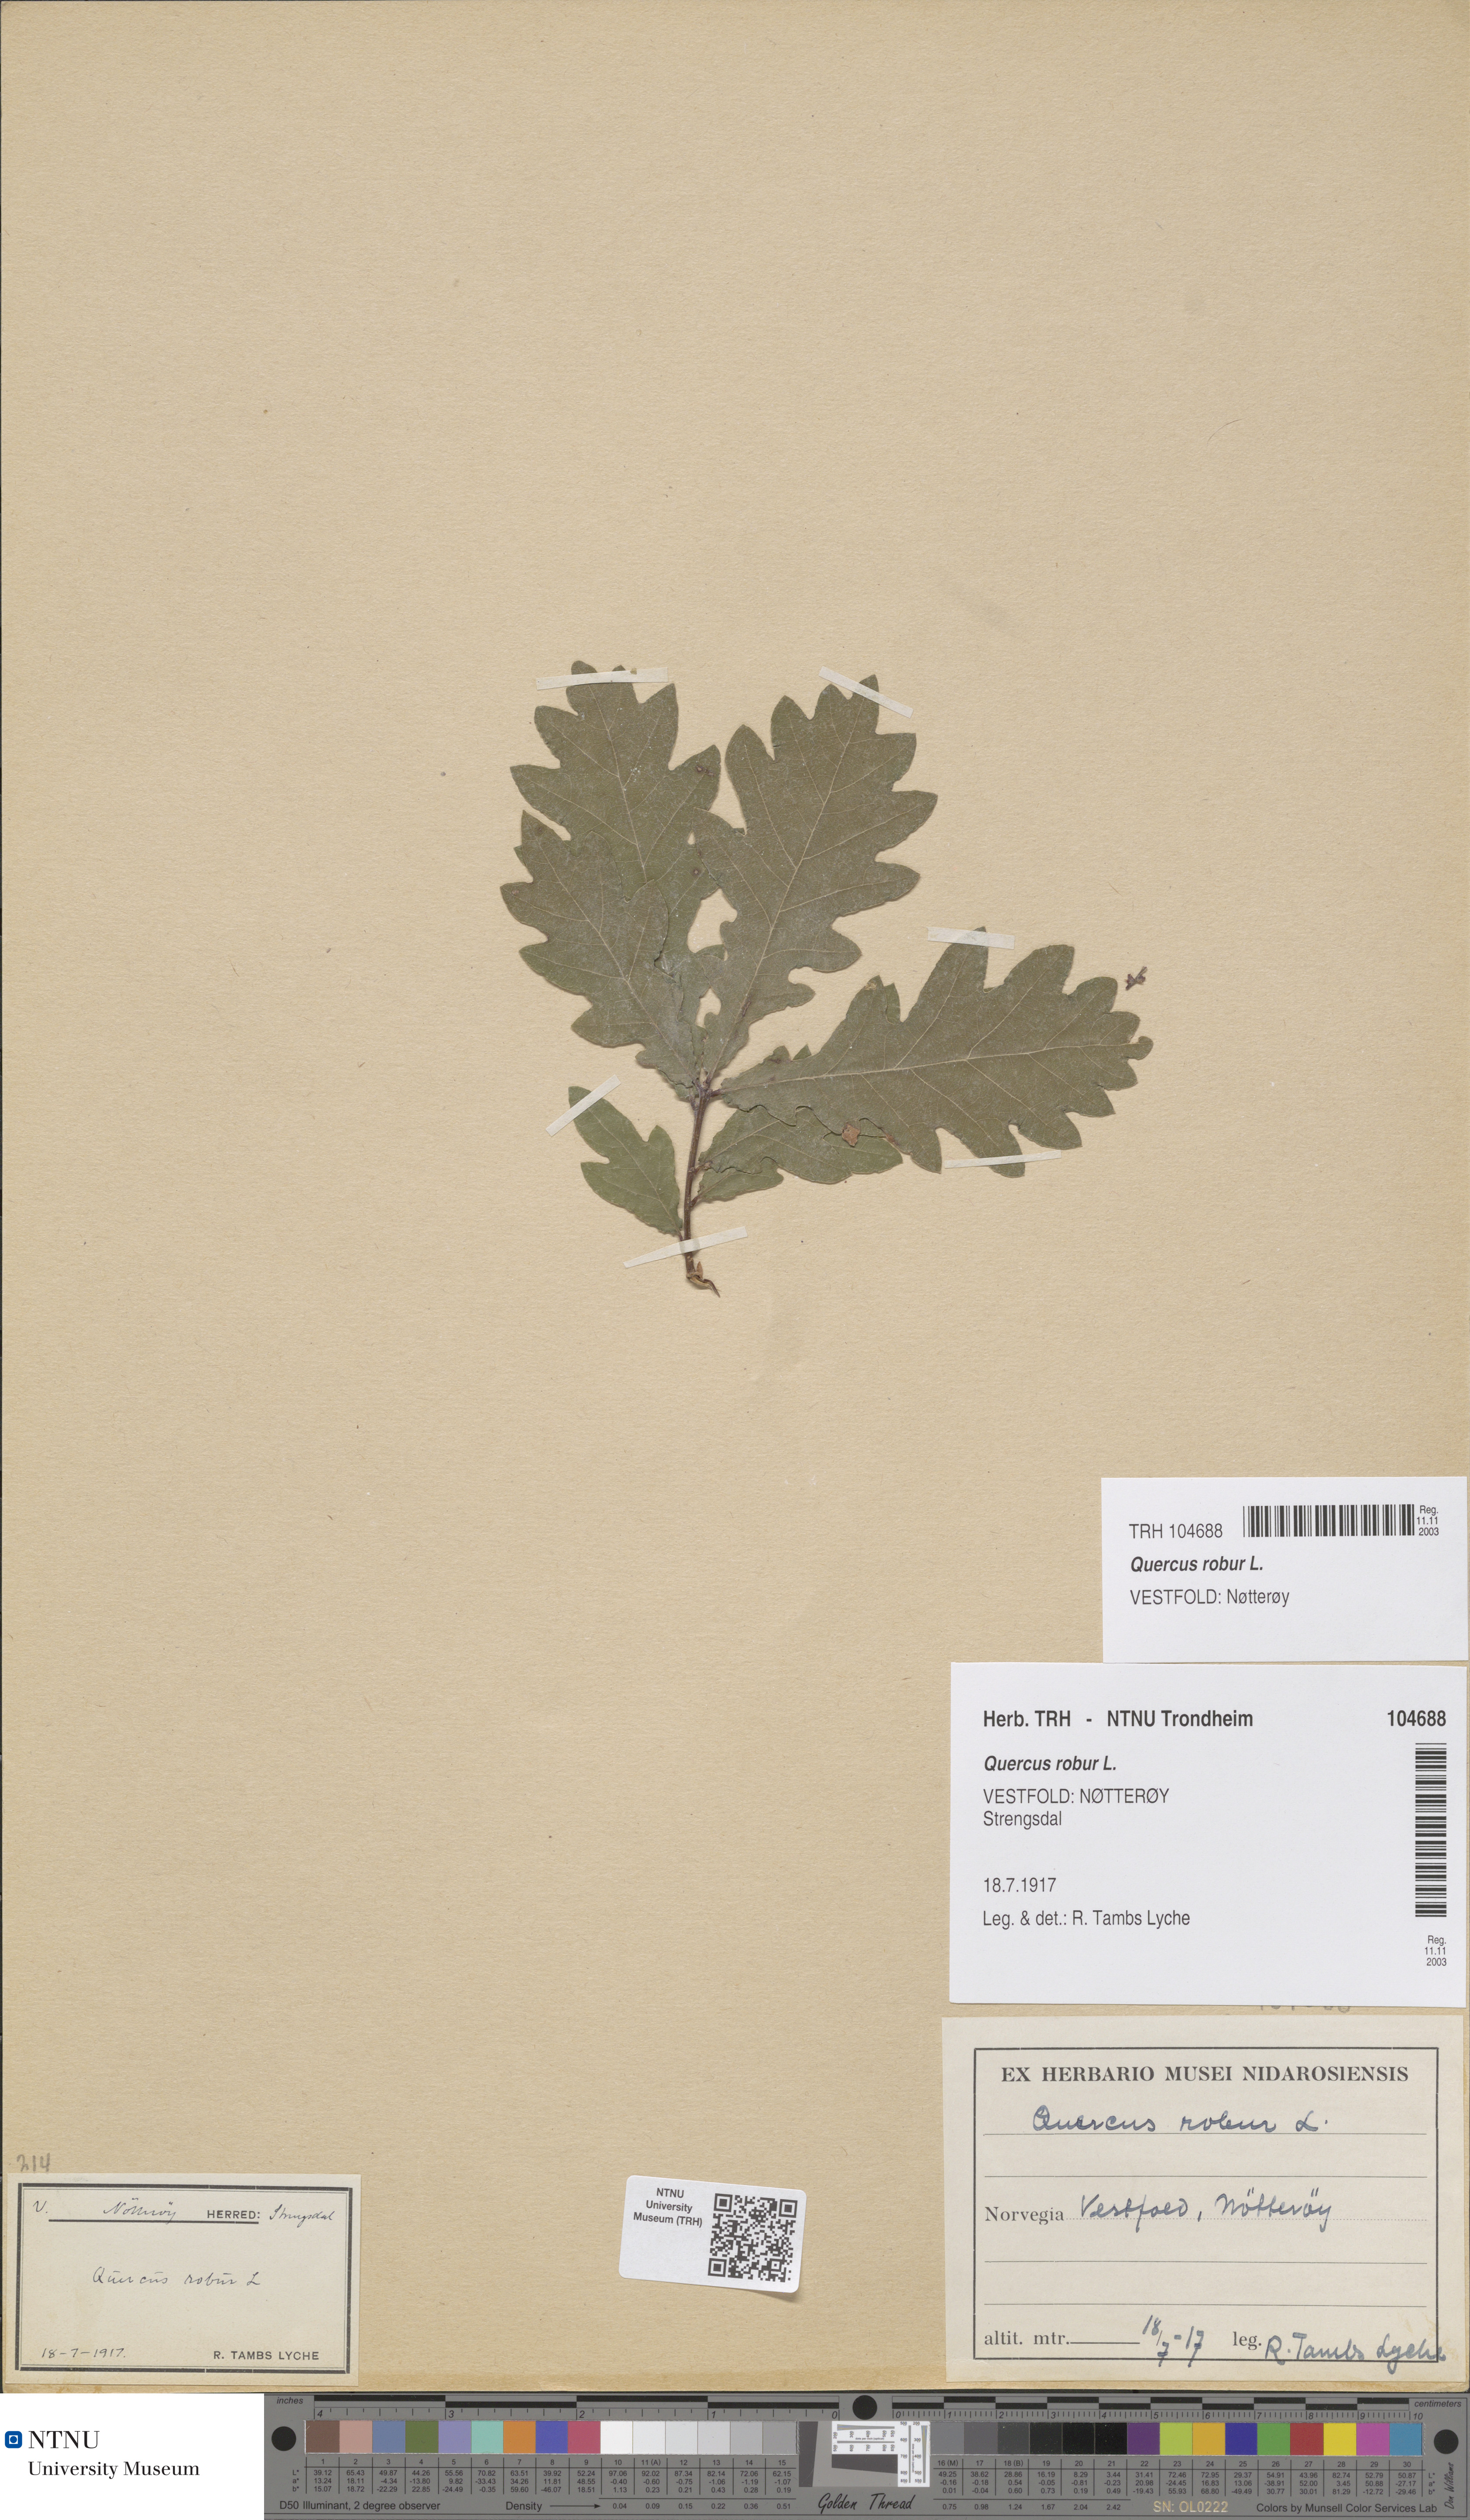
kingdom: Plantae
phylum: Tracheophyta
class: Magnoliopsida
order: Fagales
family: Fagaceae
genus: Quercus
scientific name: Quercus robur
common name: Pedunculate oak
